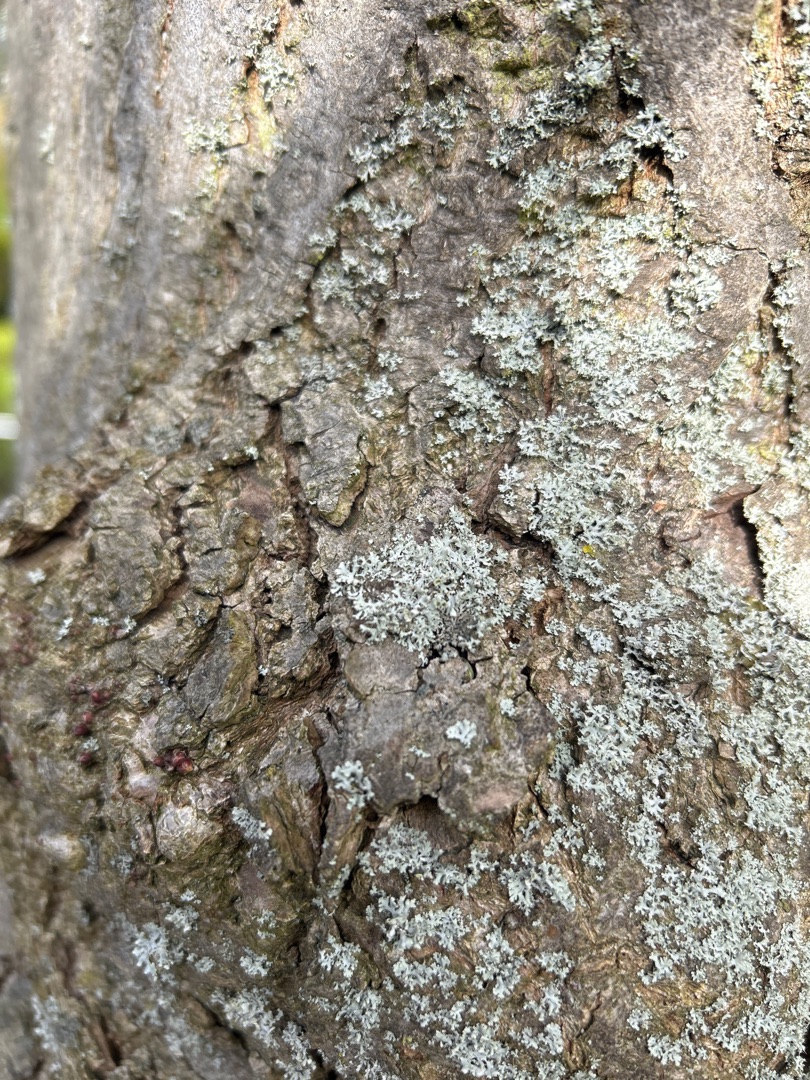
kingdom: Fungi
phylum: Ascomycota
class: Lecanoromycetes
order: Caliciales
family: Physciaceae
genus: Physcia
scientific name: Physcia tenella
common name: Spæd rosetlav
